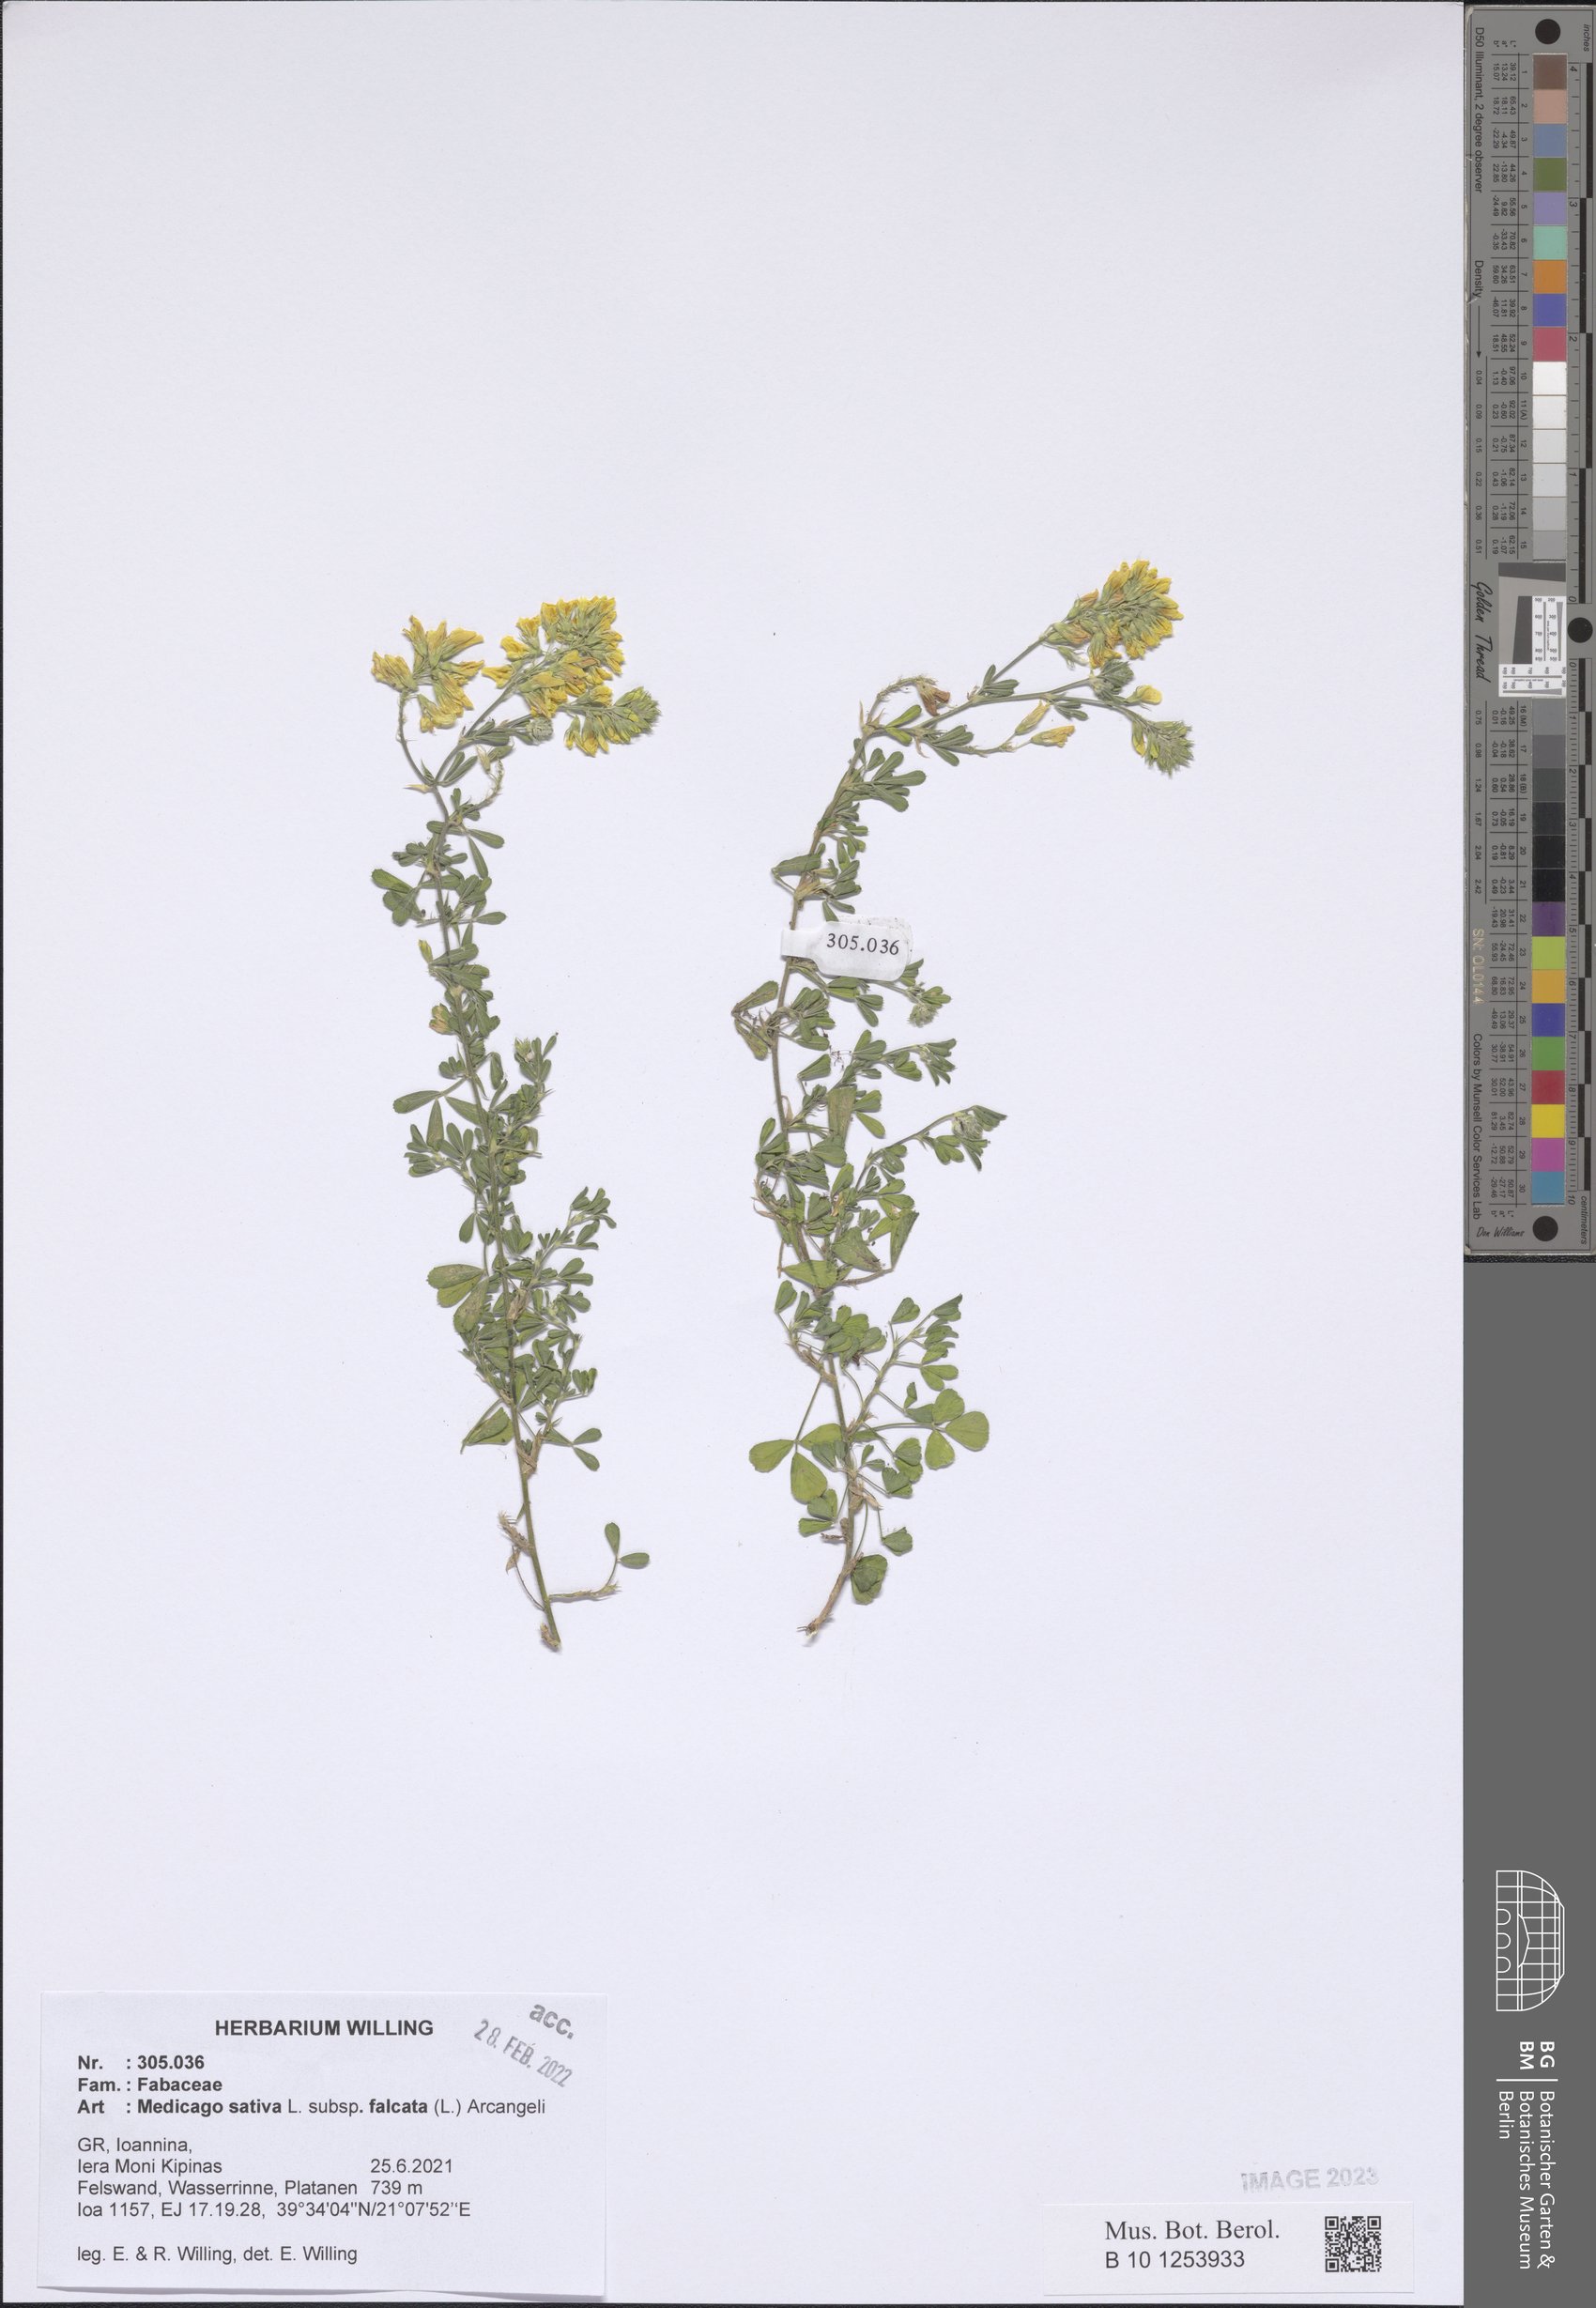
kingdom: Plantae
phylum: Tracheophyta
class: Magnoliopsida
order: Fabales
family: Fabaceae
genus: Medicago
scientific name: Medicago falcata
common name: Sickle medick
